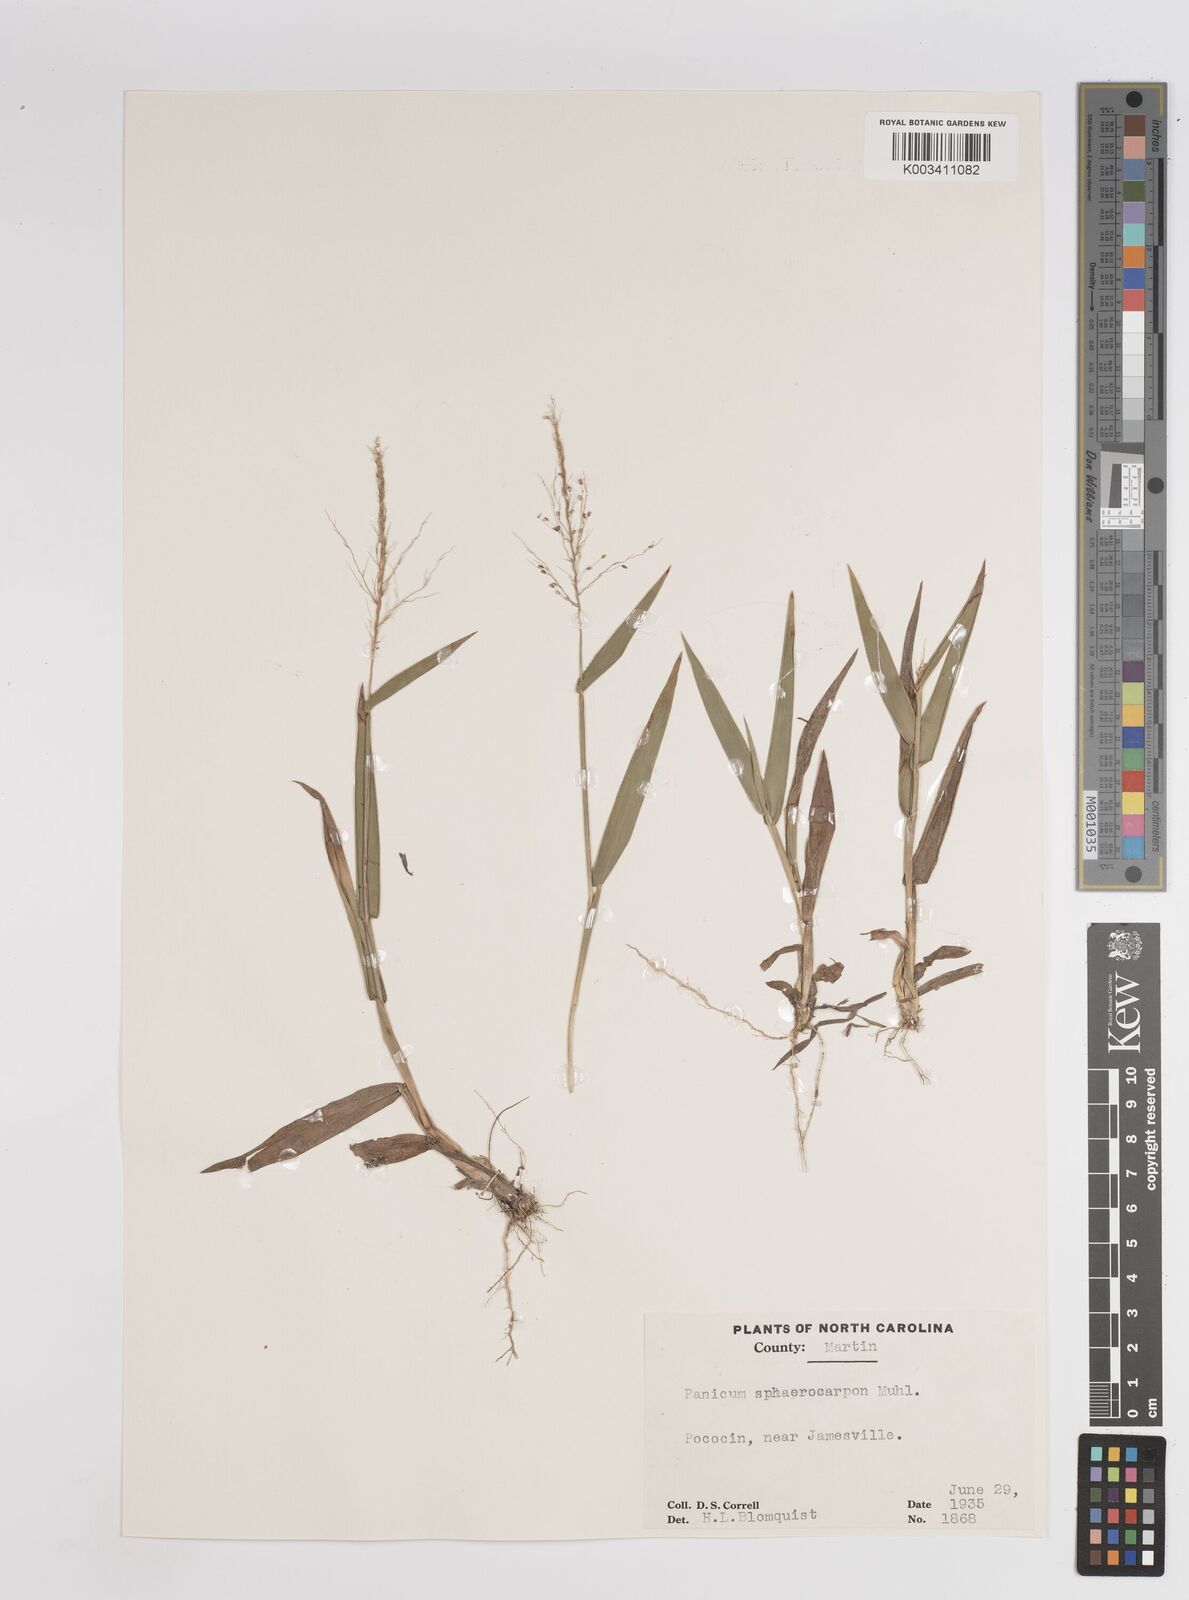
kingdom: Plantae
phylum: Tracheophyta
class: Liliopsida
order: Poales
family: Poaceae
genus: Dichanthelium
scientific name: Dichanthelium sphaerocarpon
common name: Round-fruited panicgrass
